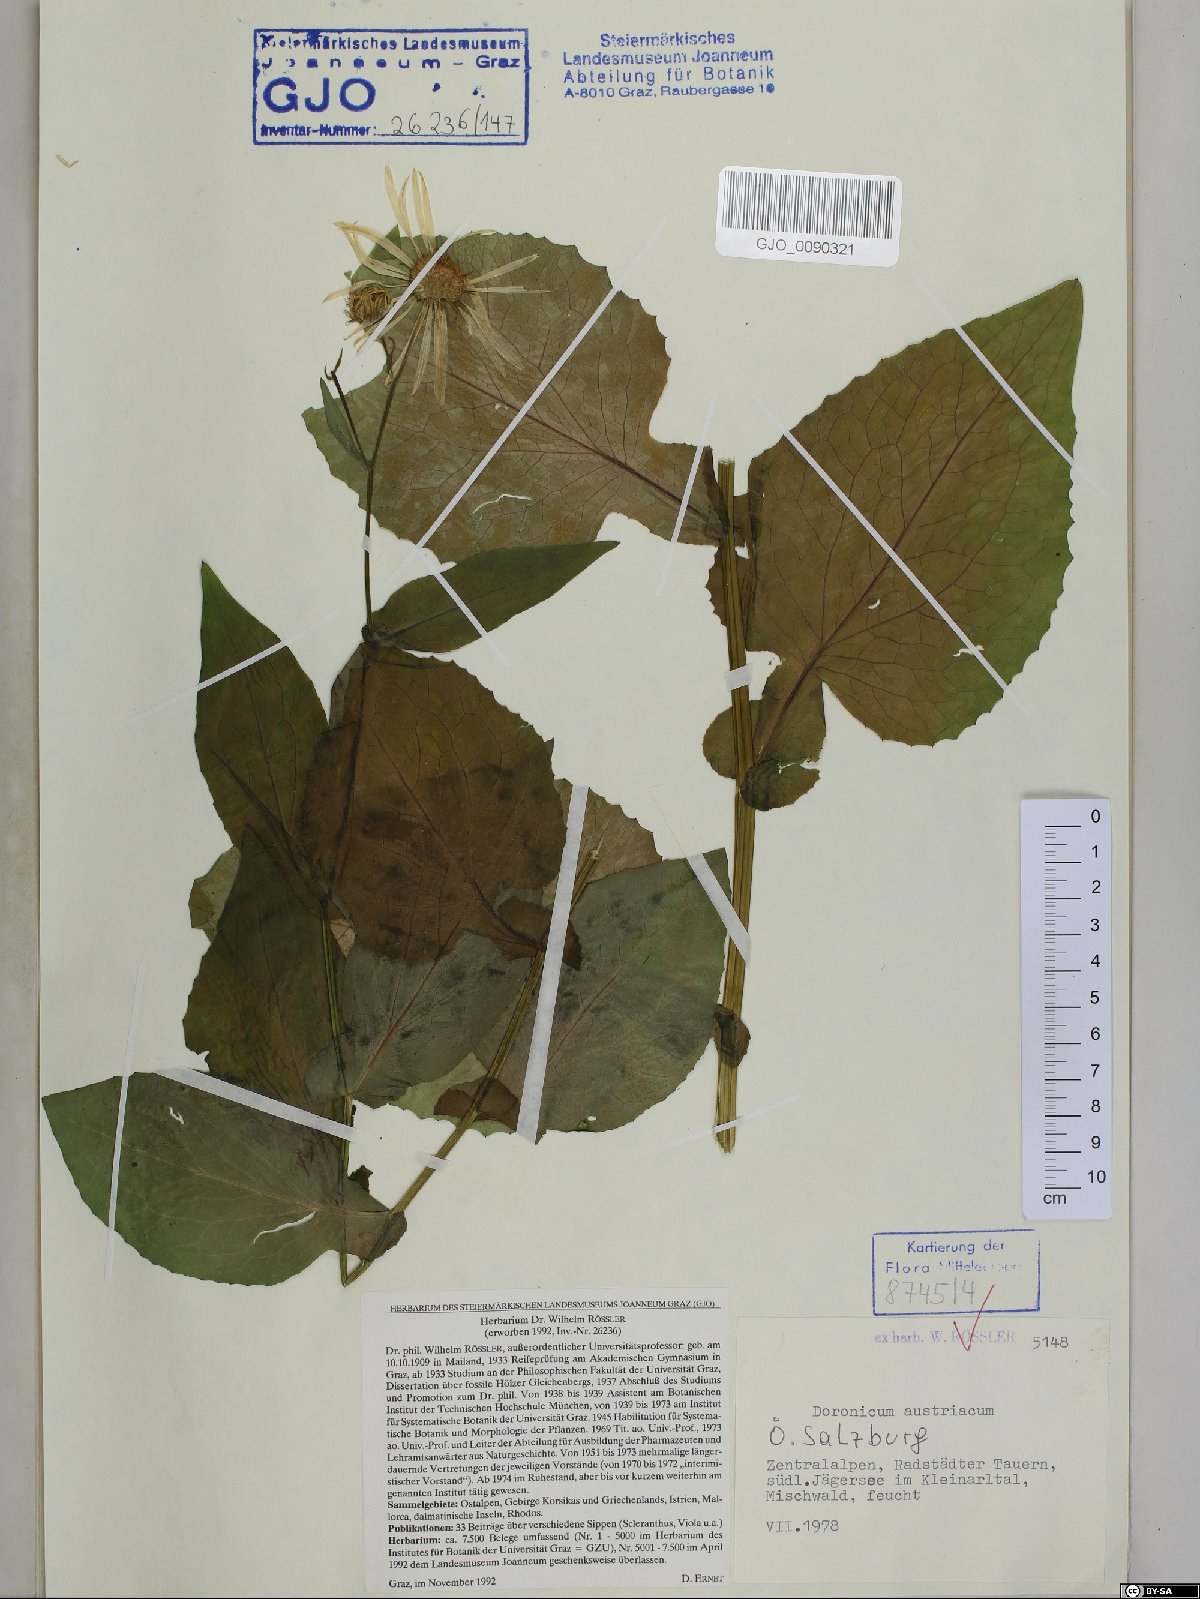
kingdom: Plantae
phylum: Tracheophyta
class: Magnoliopsida
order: Asterales
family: Asteraceae
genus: Doronicum
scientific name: Doronicum austriacum
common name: Austrian leopard's-bane
